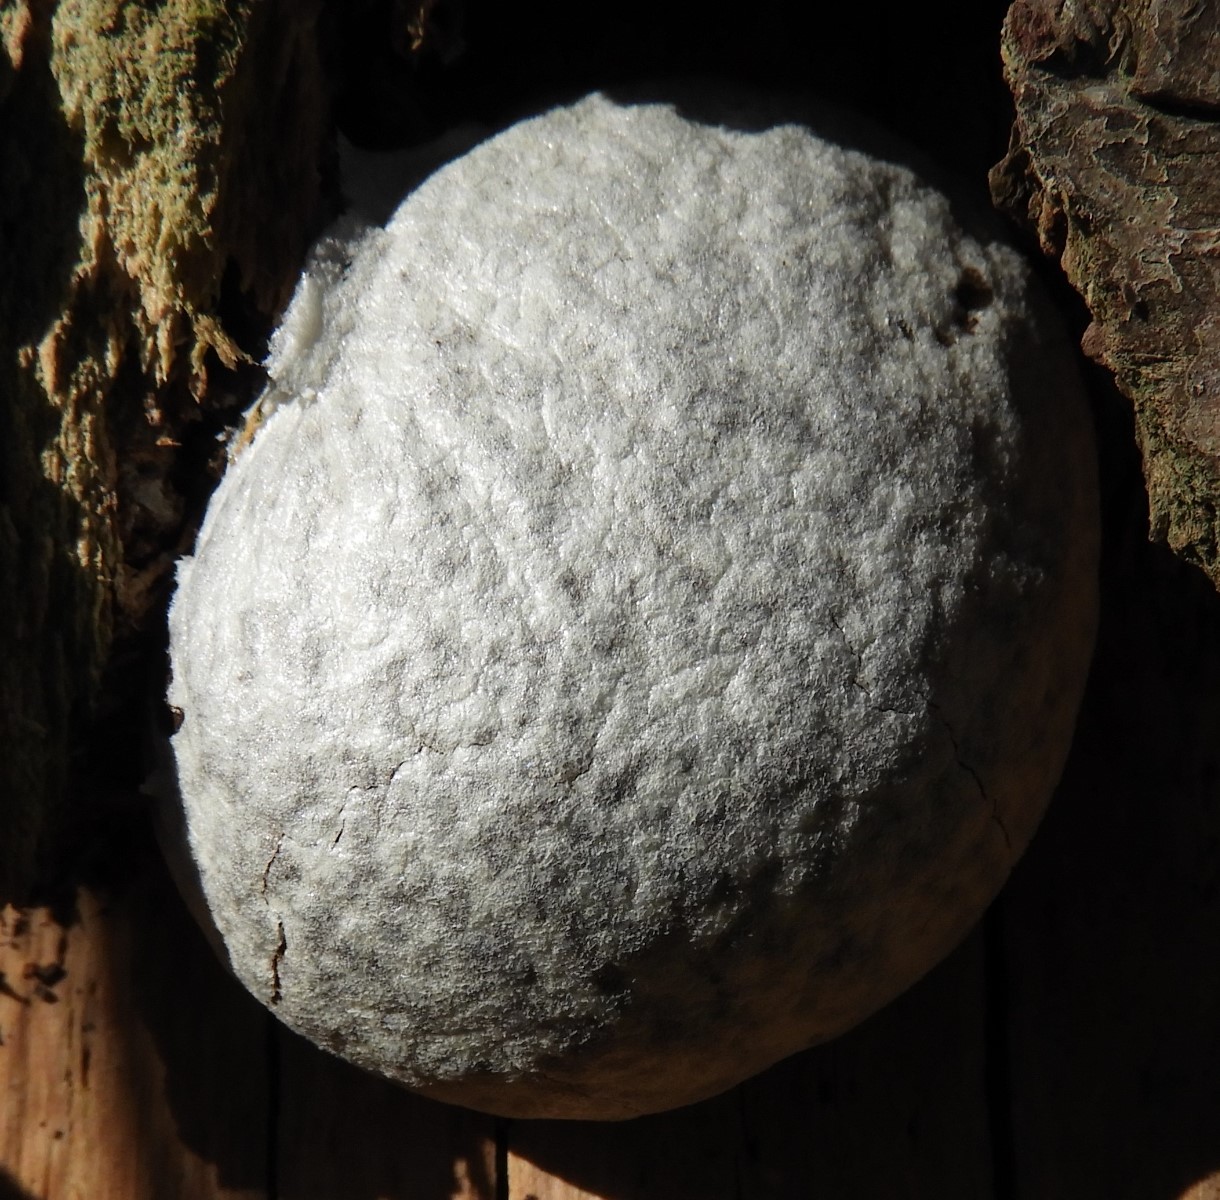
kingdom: Protozoa
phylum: Mycetozoa
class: Myxomycetes
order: Cribrariales
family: Tubiferaceae
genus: Reticularia
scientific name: Reticularia lycoperdon
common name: skinnende støvpude
